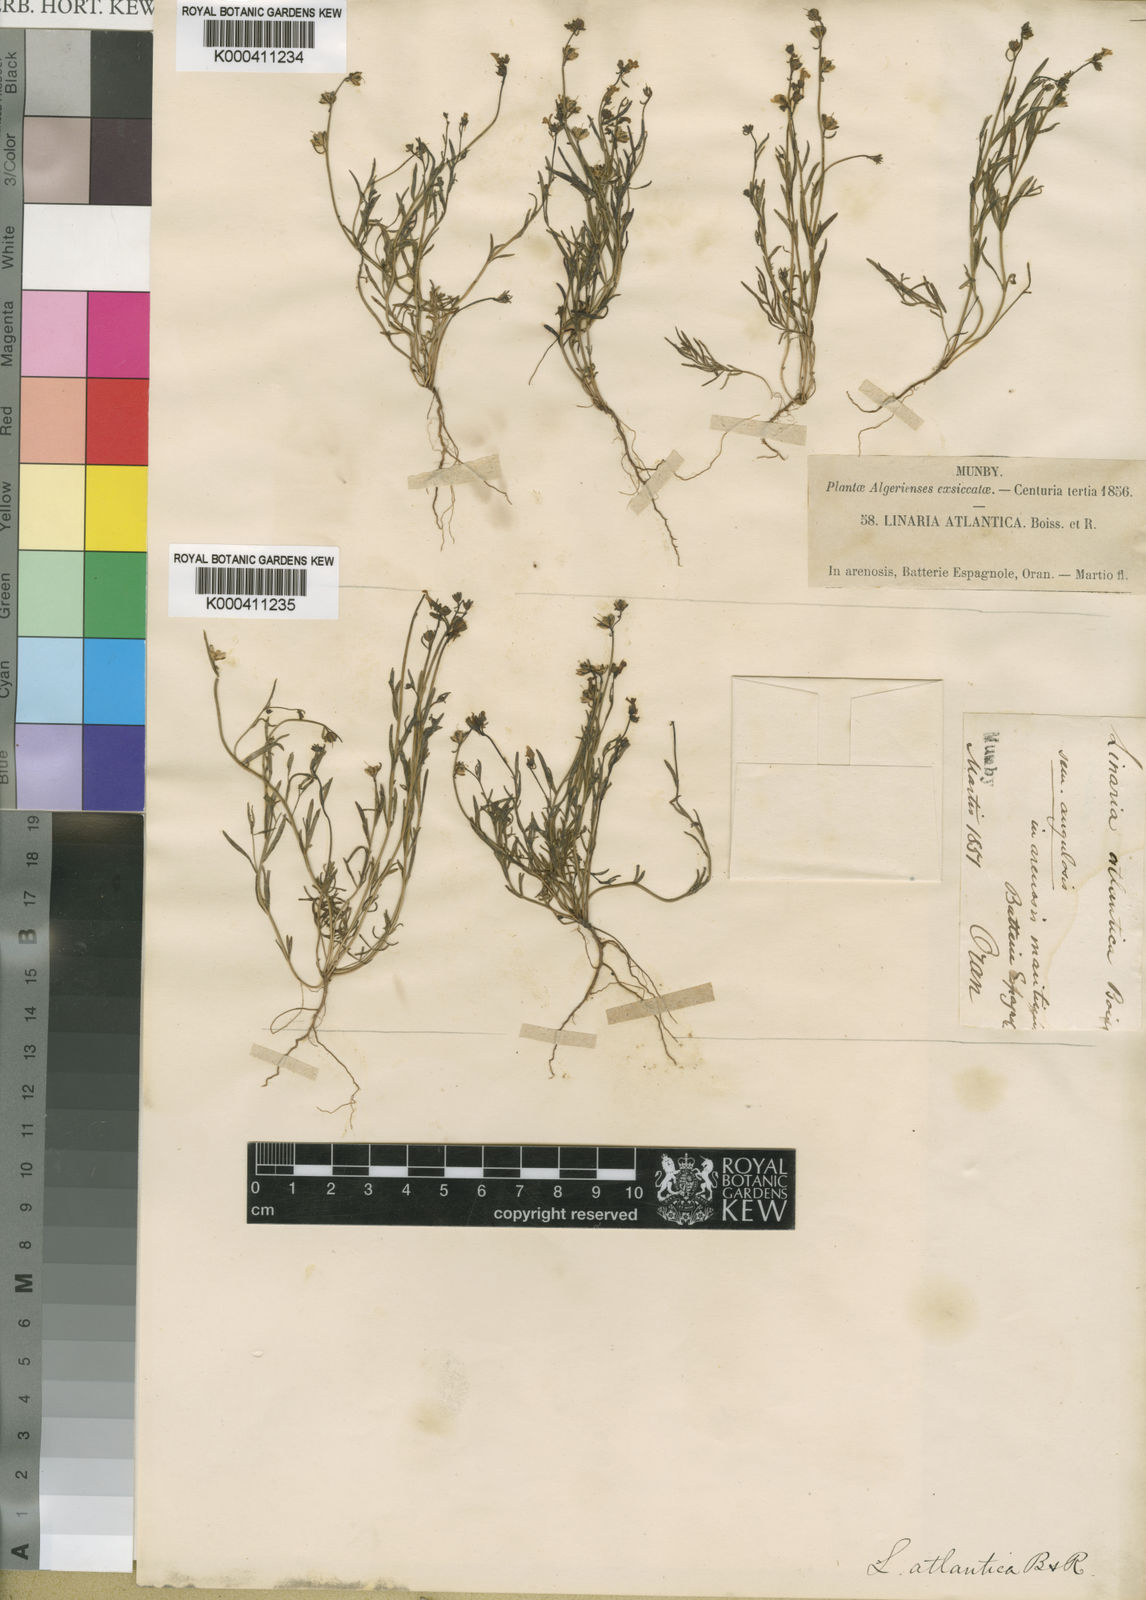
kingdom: Plantae
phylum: Tracheophyta
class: Magnoliopsida
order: Lamiales
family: Plantaginaceae
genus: Linaria
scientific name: Linaria atlantica
